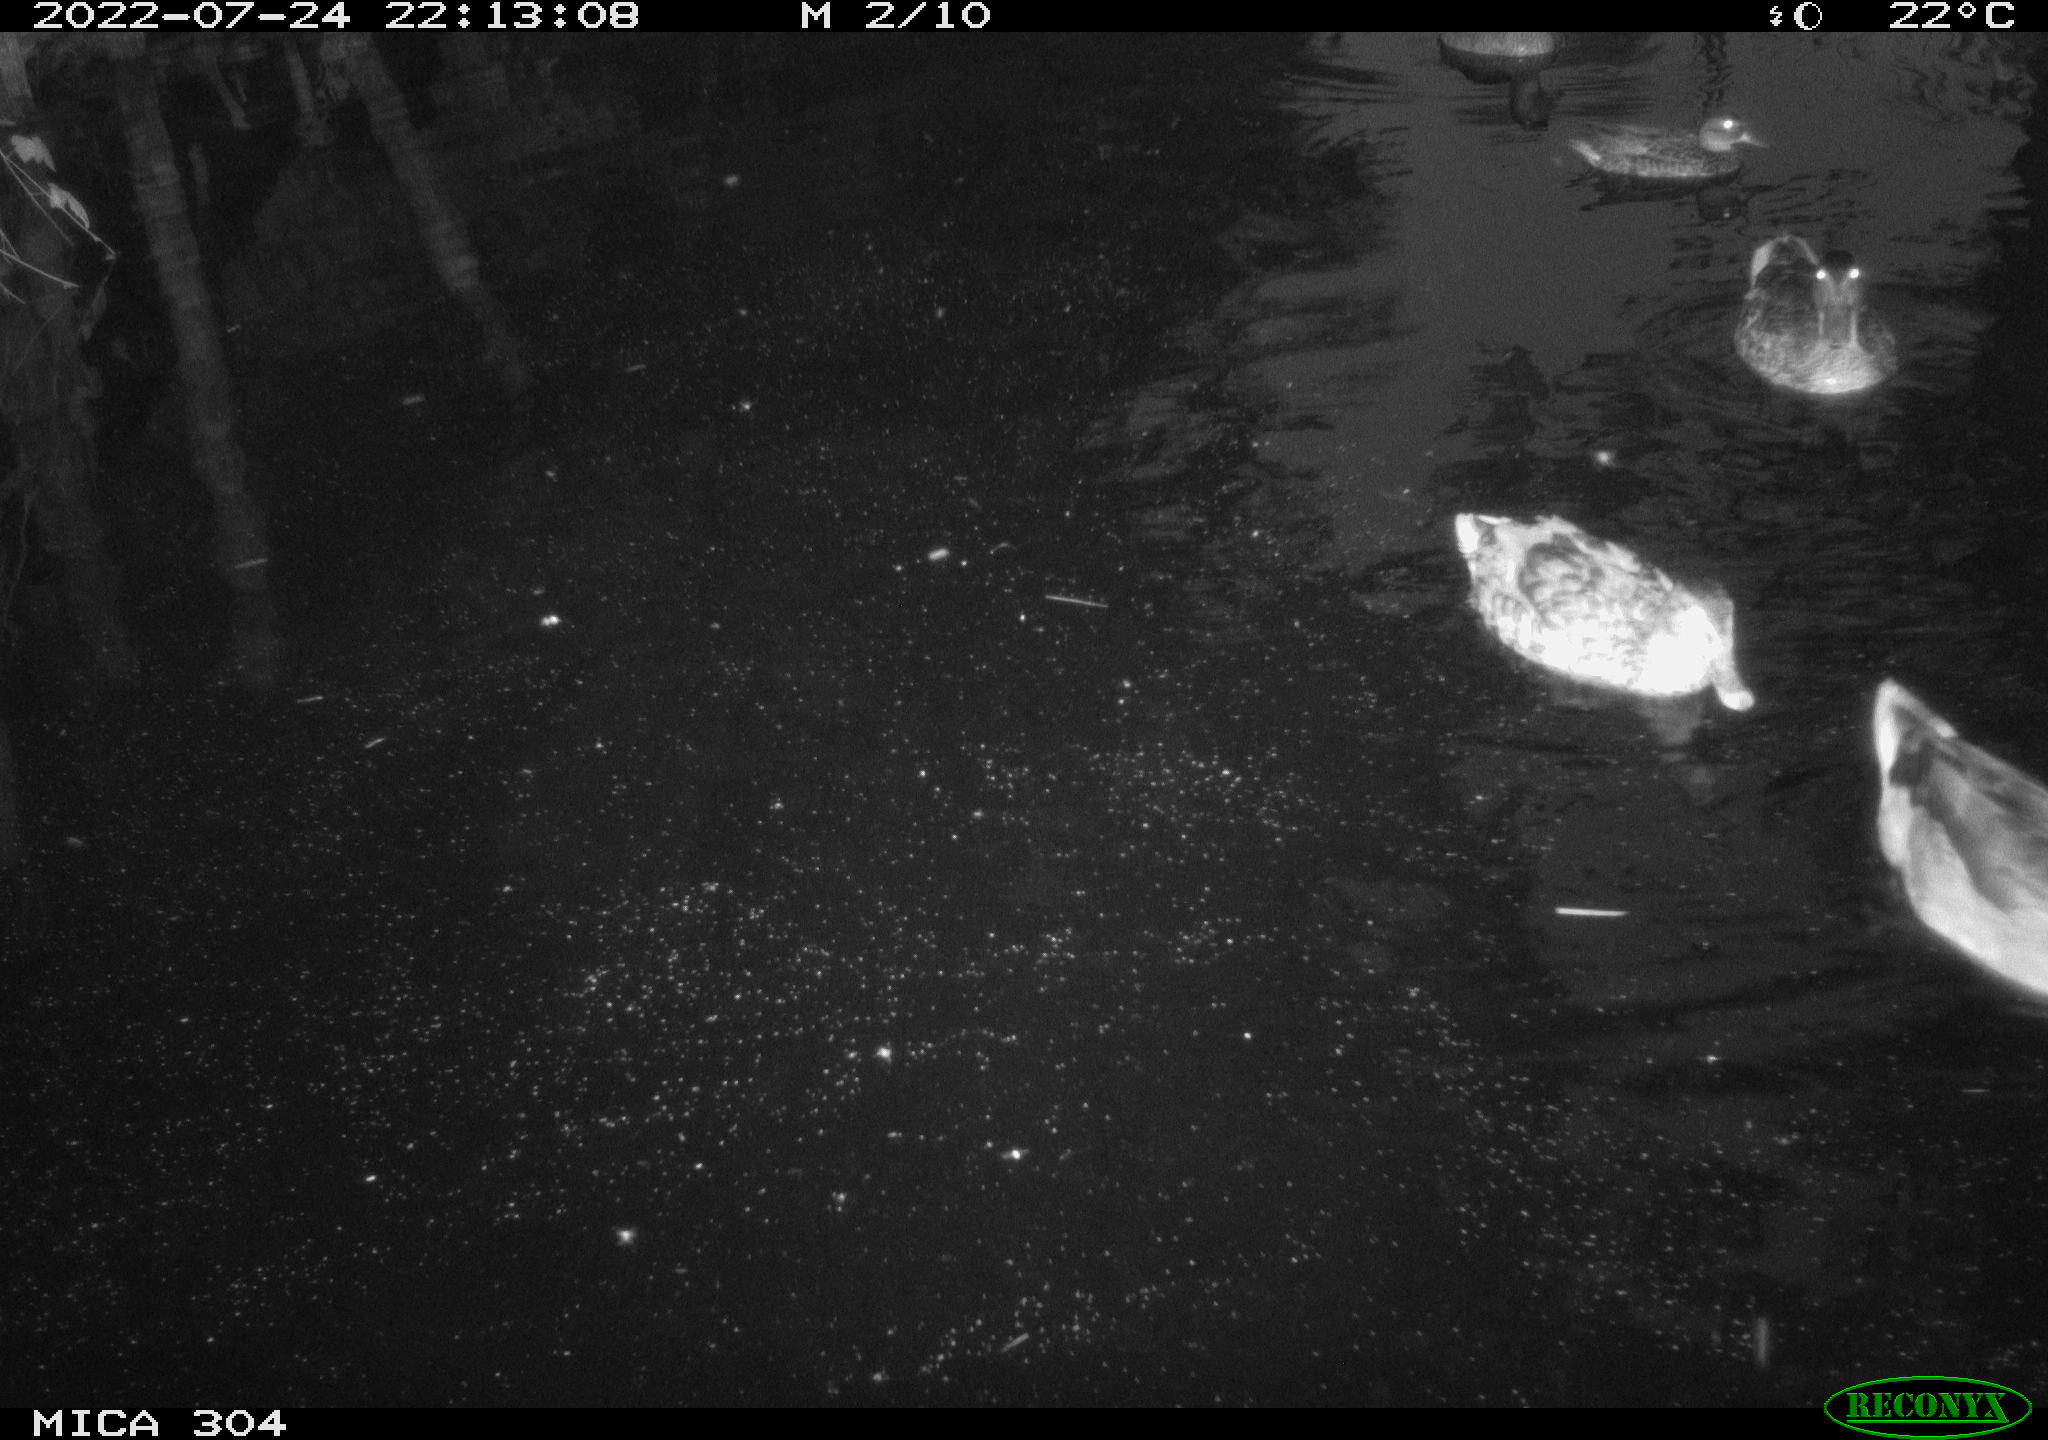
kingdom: Animalia
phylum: Chordata
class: Aves
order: Anseriformes
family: Anatidae
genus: Mareca
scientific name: Mareca strepera
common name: Gadwall
